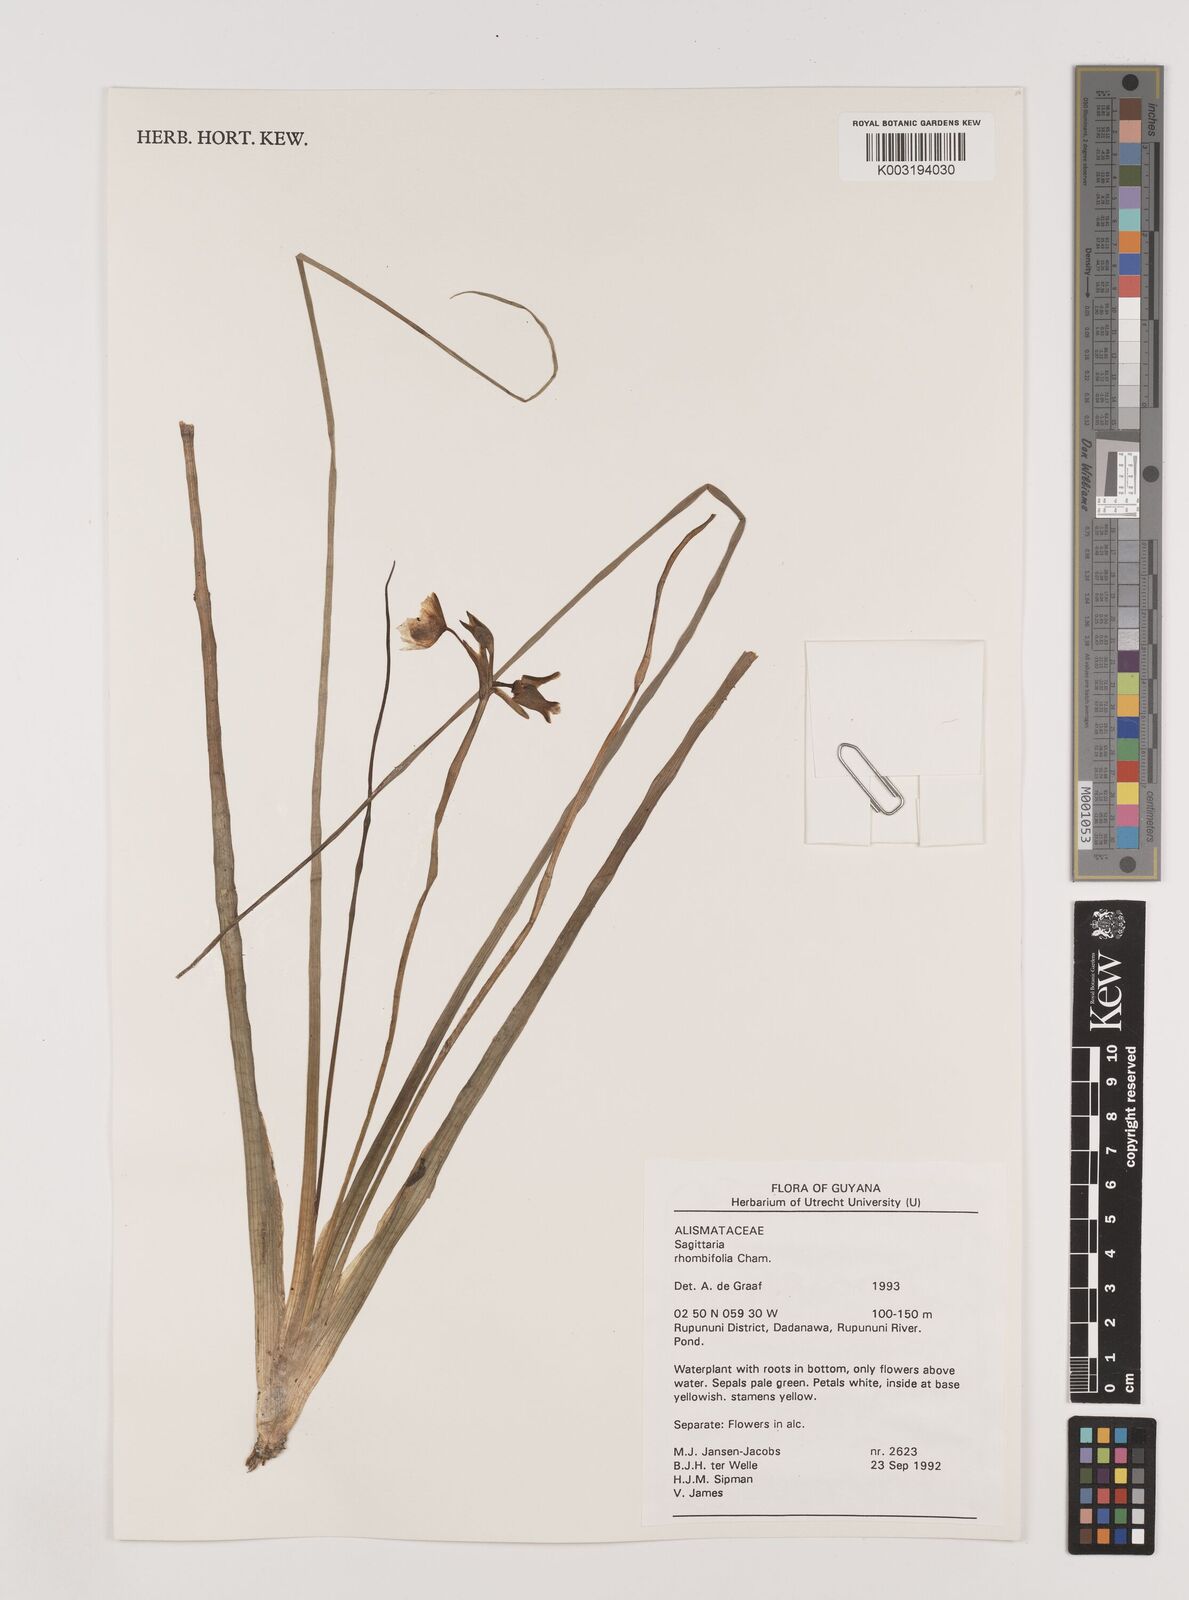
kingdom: Plantae
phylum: Tracheophyta
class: Liliopsida
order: Alismatales
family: Alismataceae
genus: Sagittaria
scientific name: Sagittaria rhombifolia
